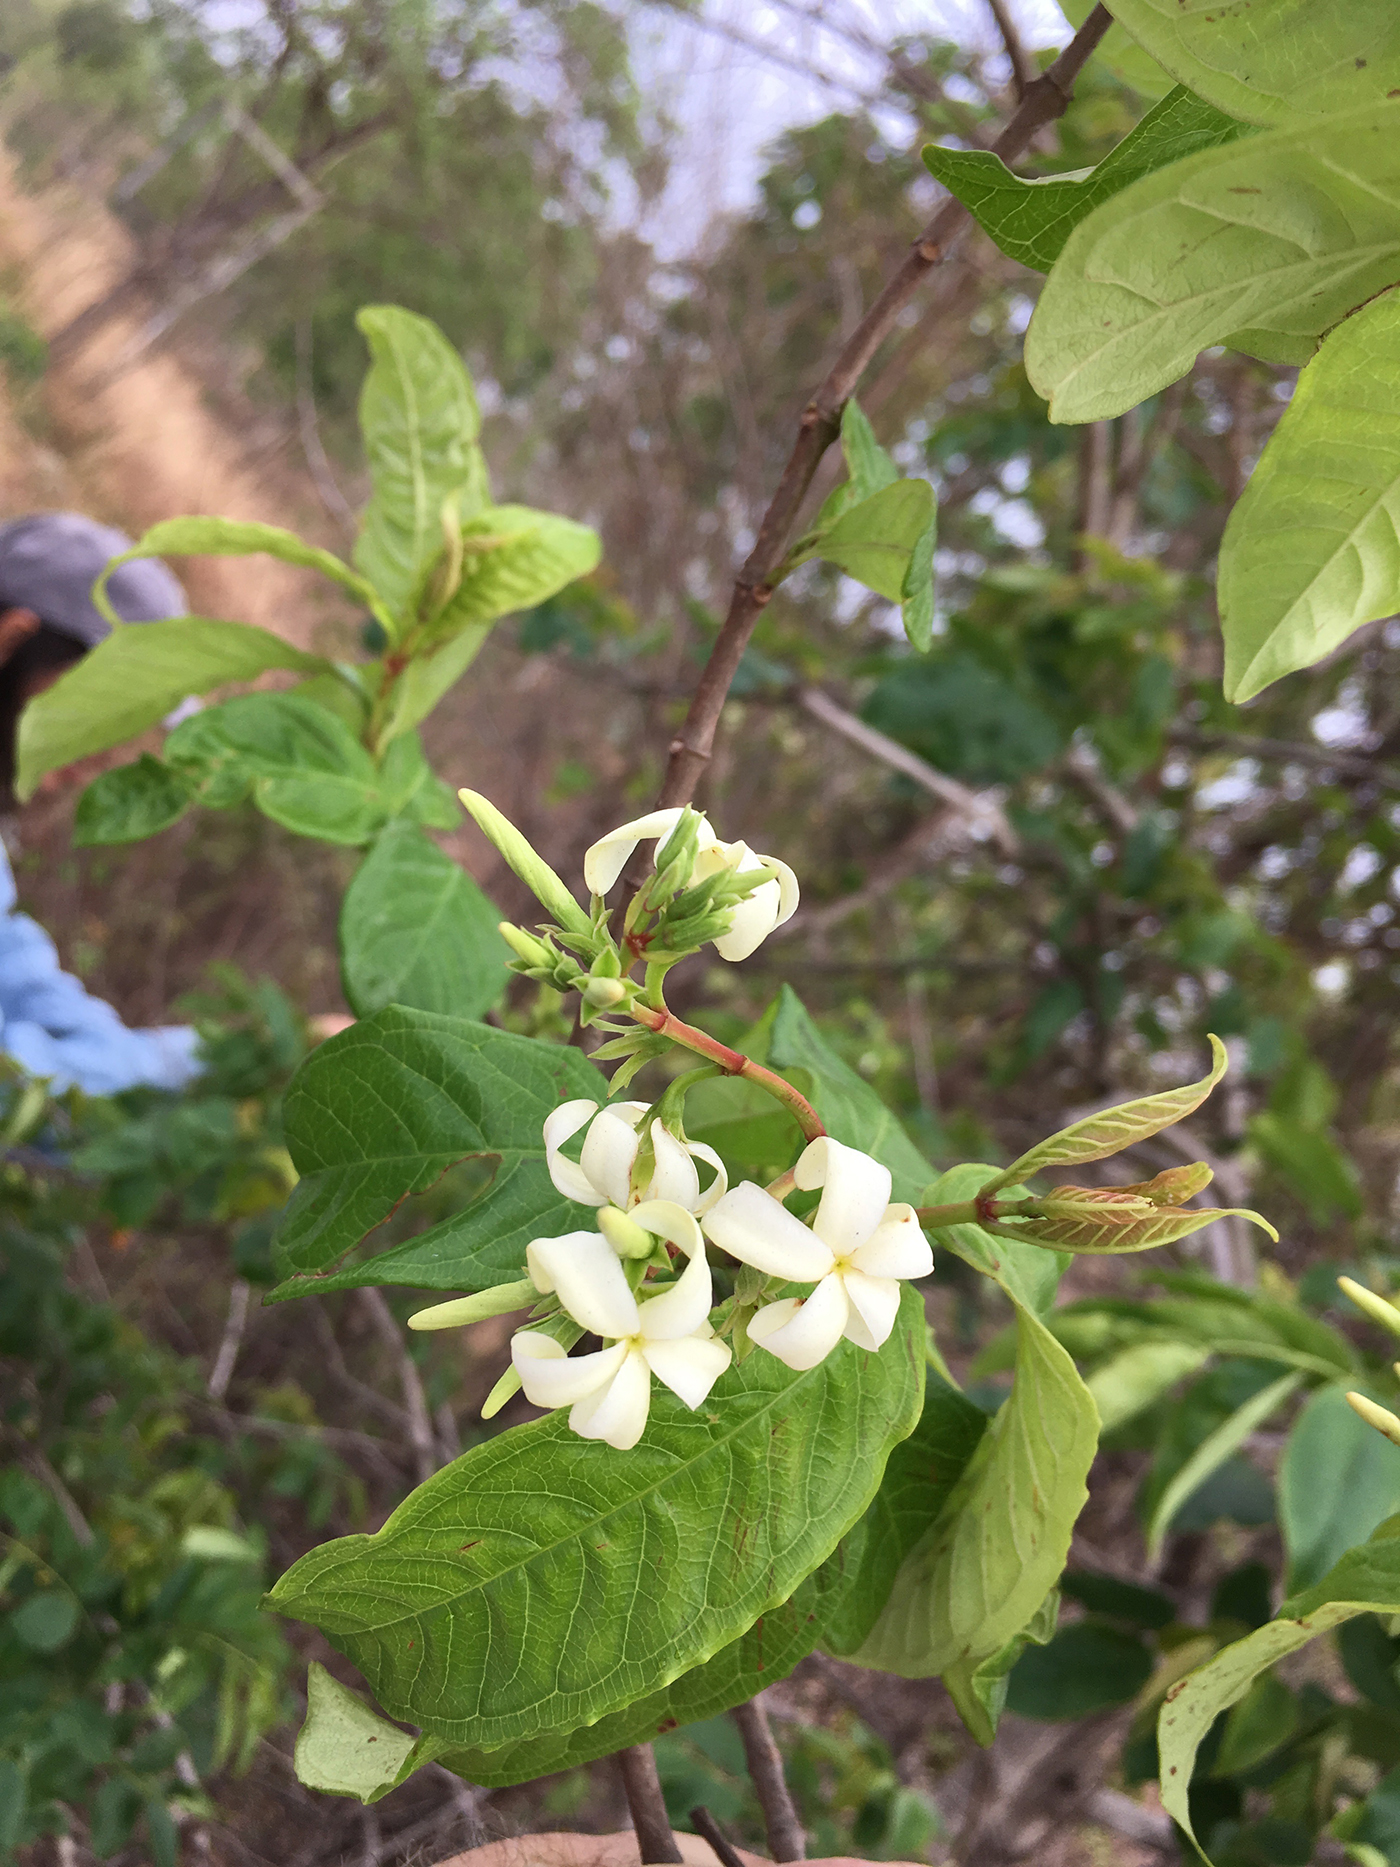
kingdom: Plantae
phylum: Tracheophyta
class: Magnoliopsida
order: Gentianales
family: Apocynaceae
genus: Amphineurion
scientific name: Amphineurion marginatum
